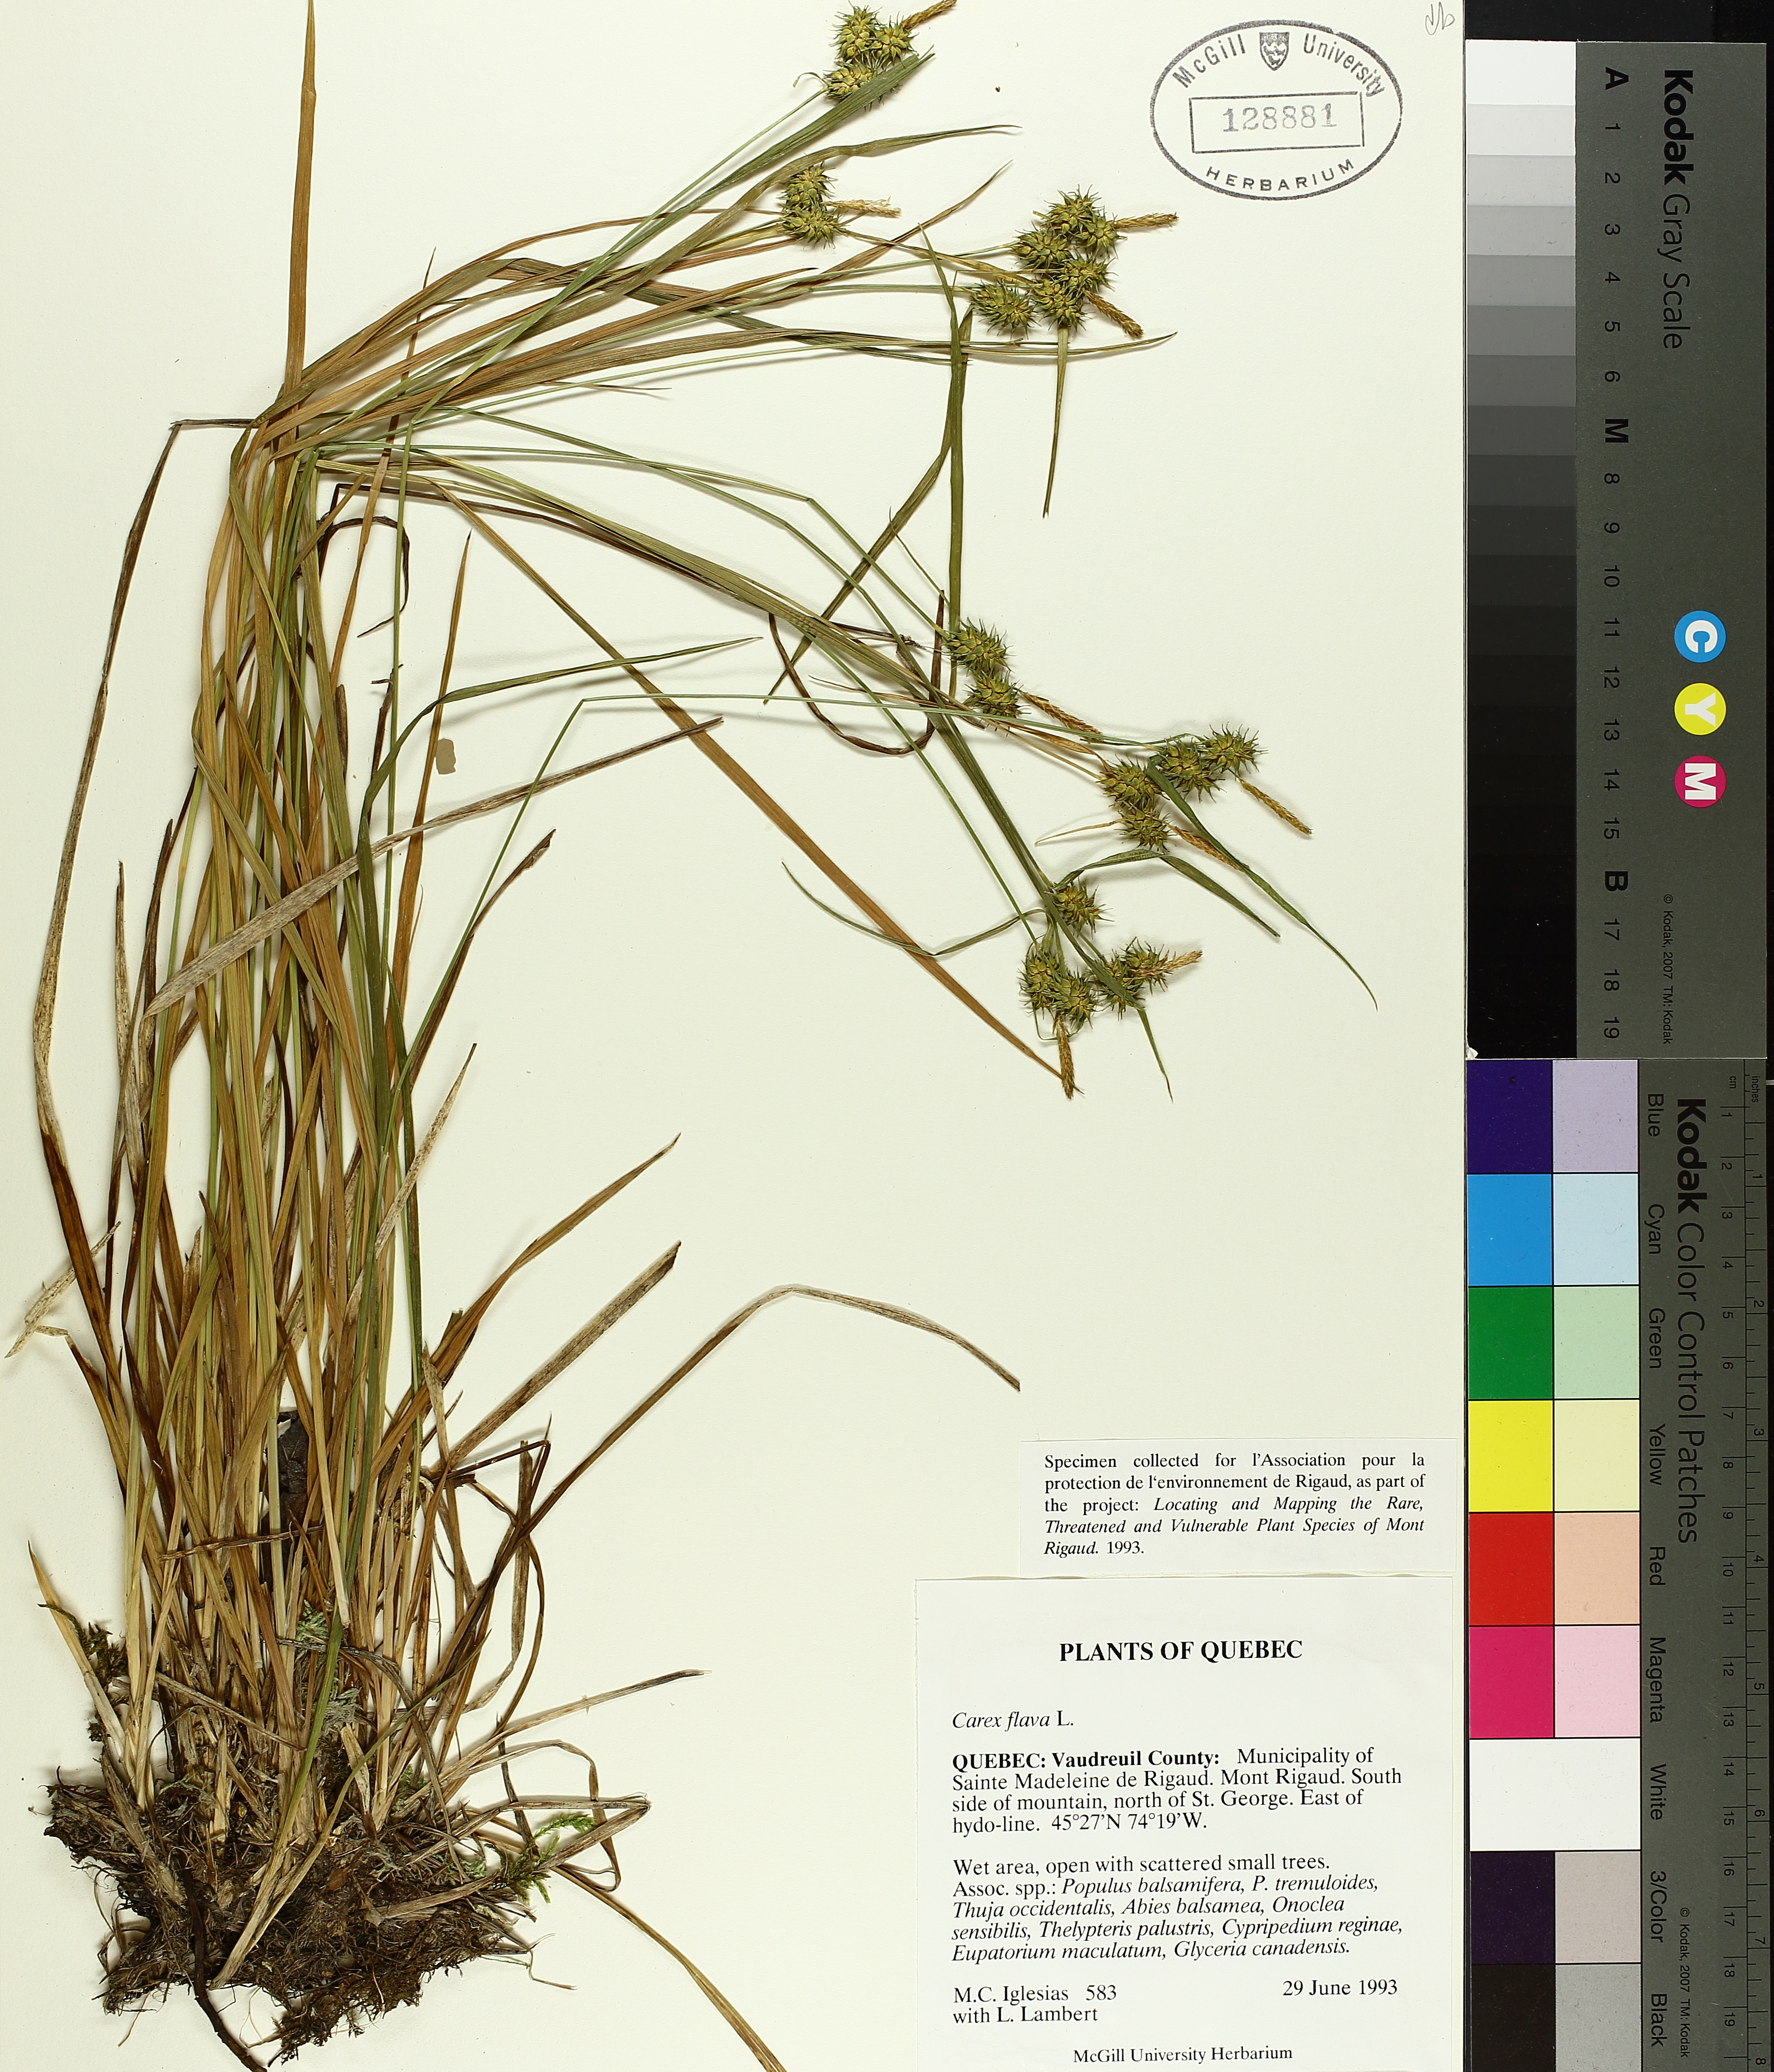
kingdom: Plantae
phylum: Tracheophyta
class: Liliopsida
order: Poales
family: Cyperaceae
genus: Carex
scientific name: Carex flava
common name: Large yellow-sedge
